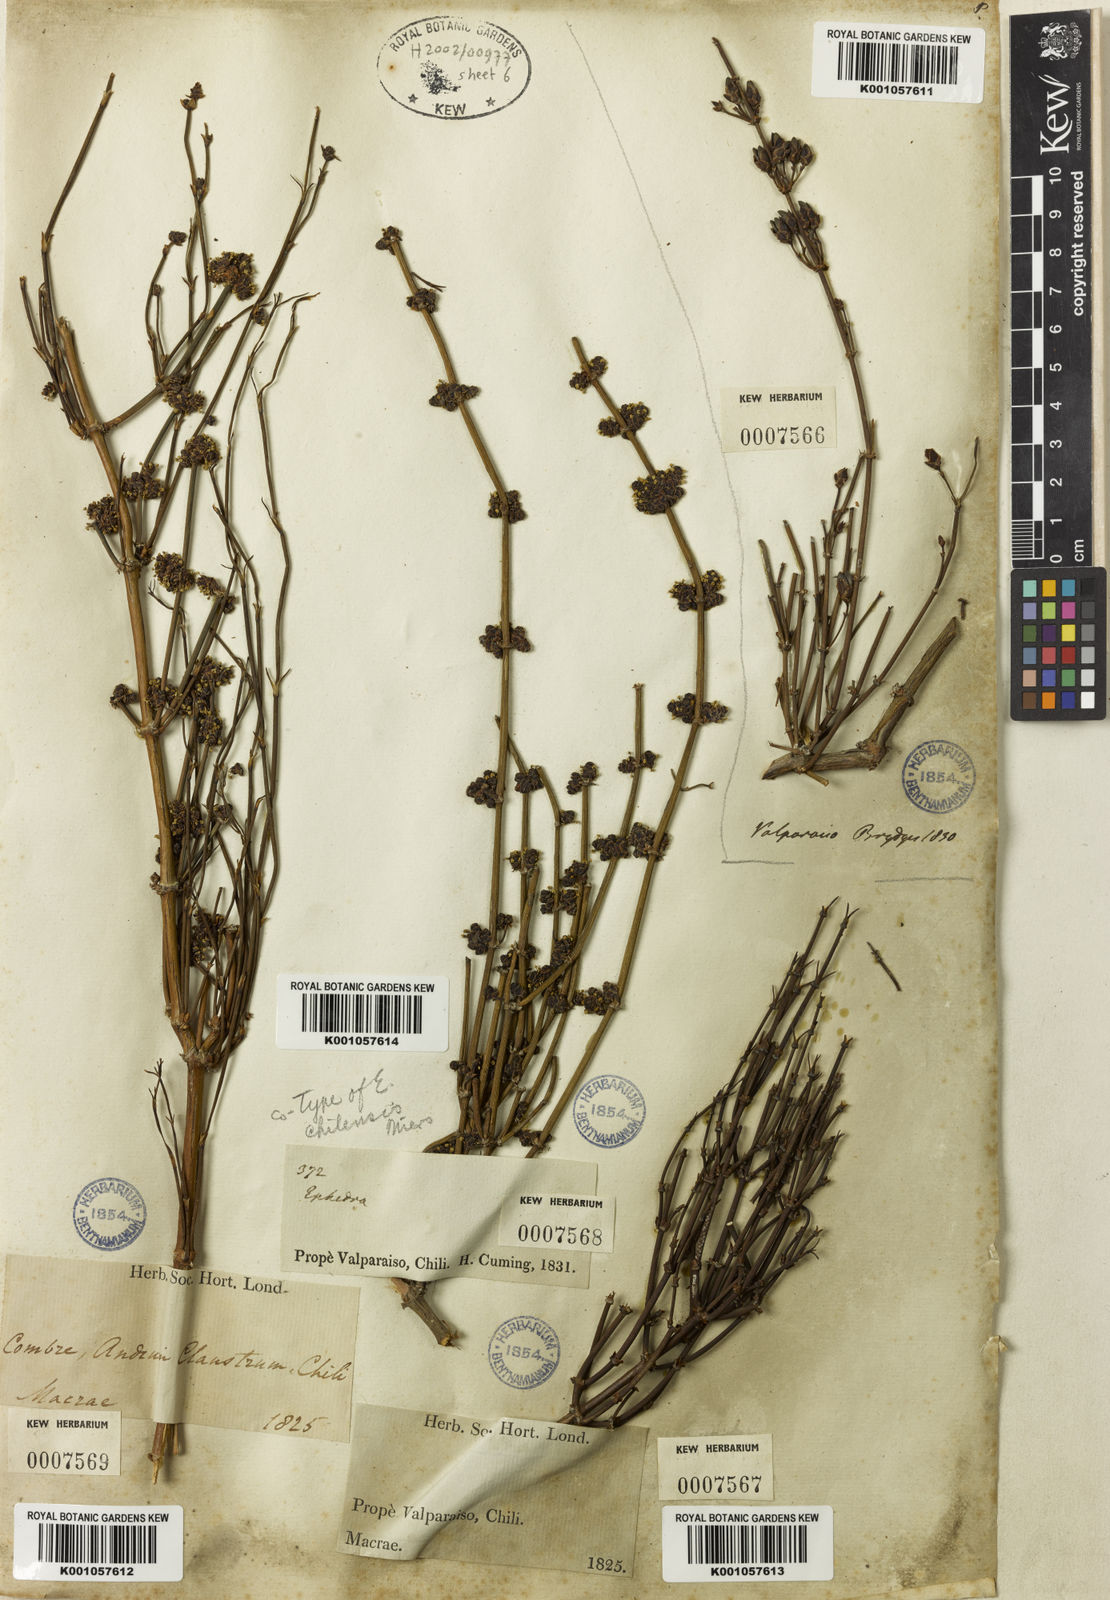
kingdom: Plantae
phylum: Tracheophyta
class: Gnetopsida
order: Ephedrales
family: Ephedraceae
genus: Ephedra
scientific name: Ephedra americana
